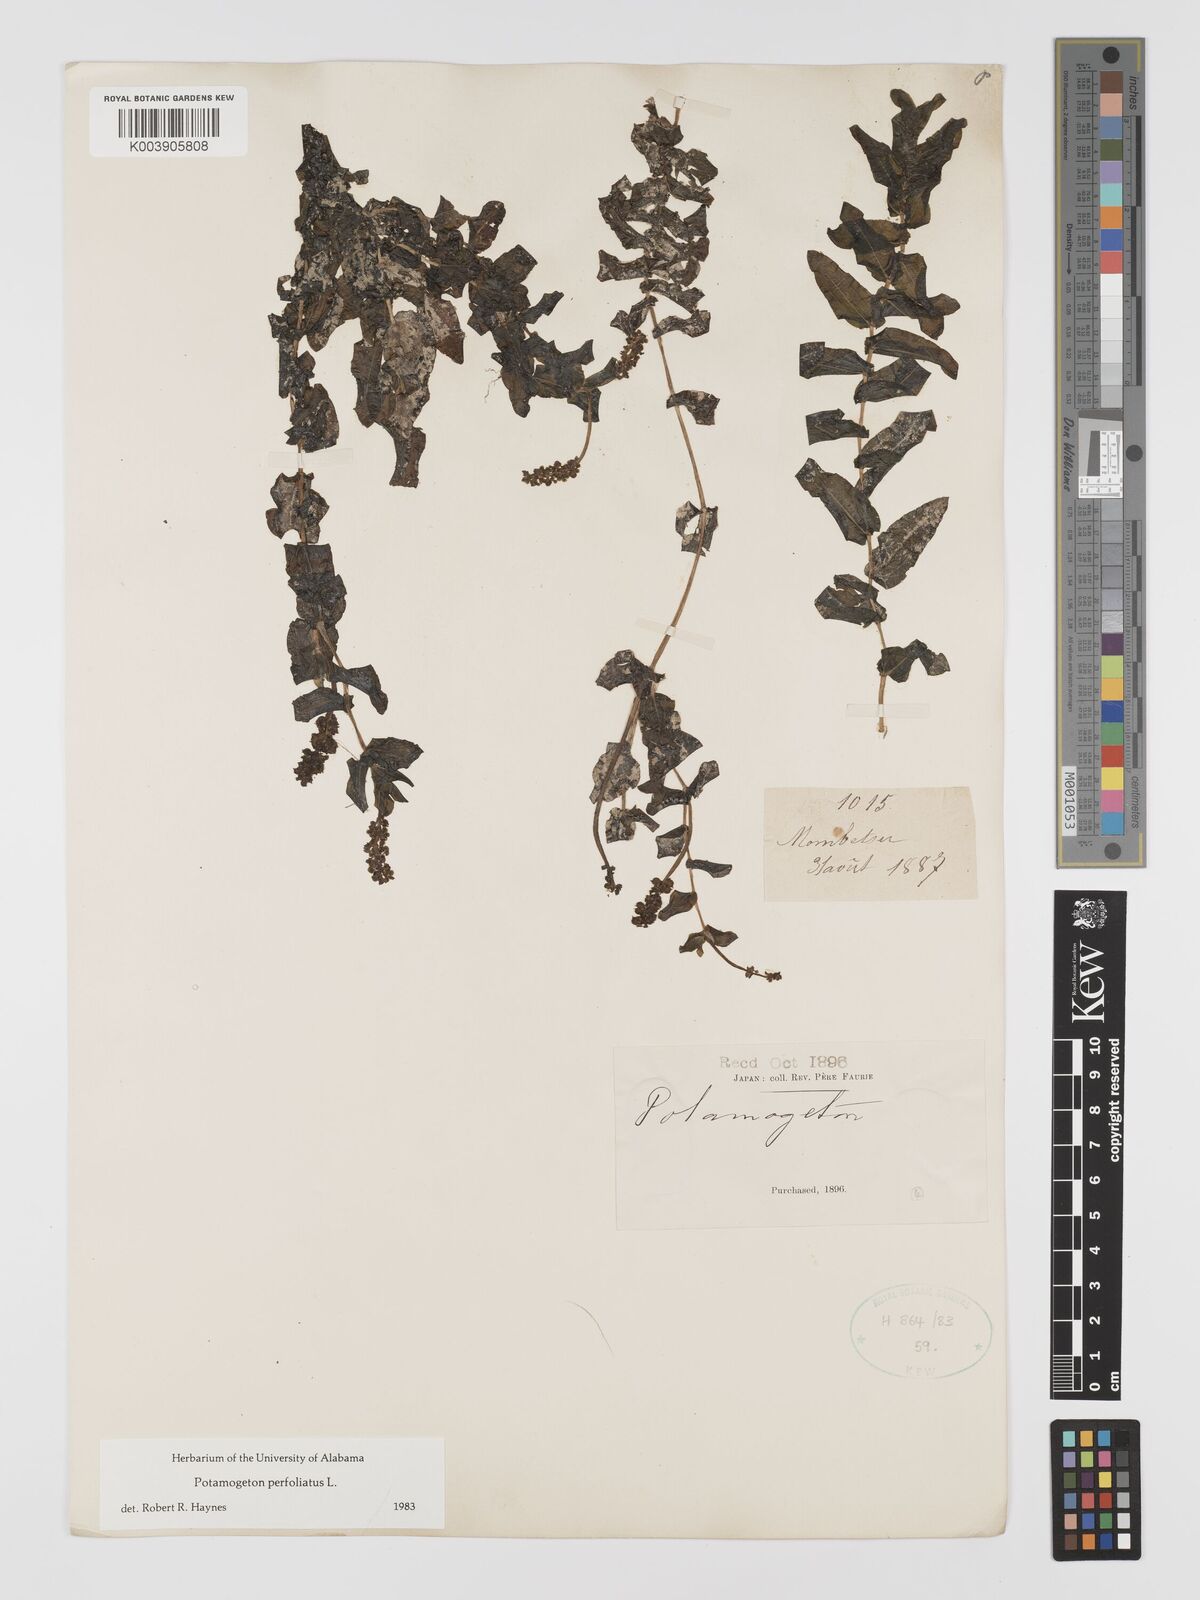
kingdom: Plantae
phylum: Tracheophyta
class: Liliopsida
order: Alismatales
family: Potamogetonaceae
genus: Potamogeton
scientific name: Potamogeton perfoliatus
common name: Perfoliate pondweed
